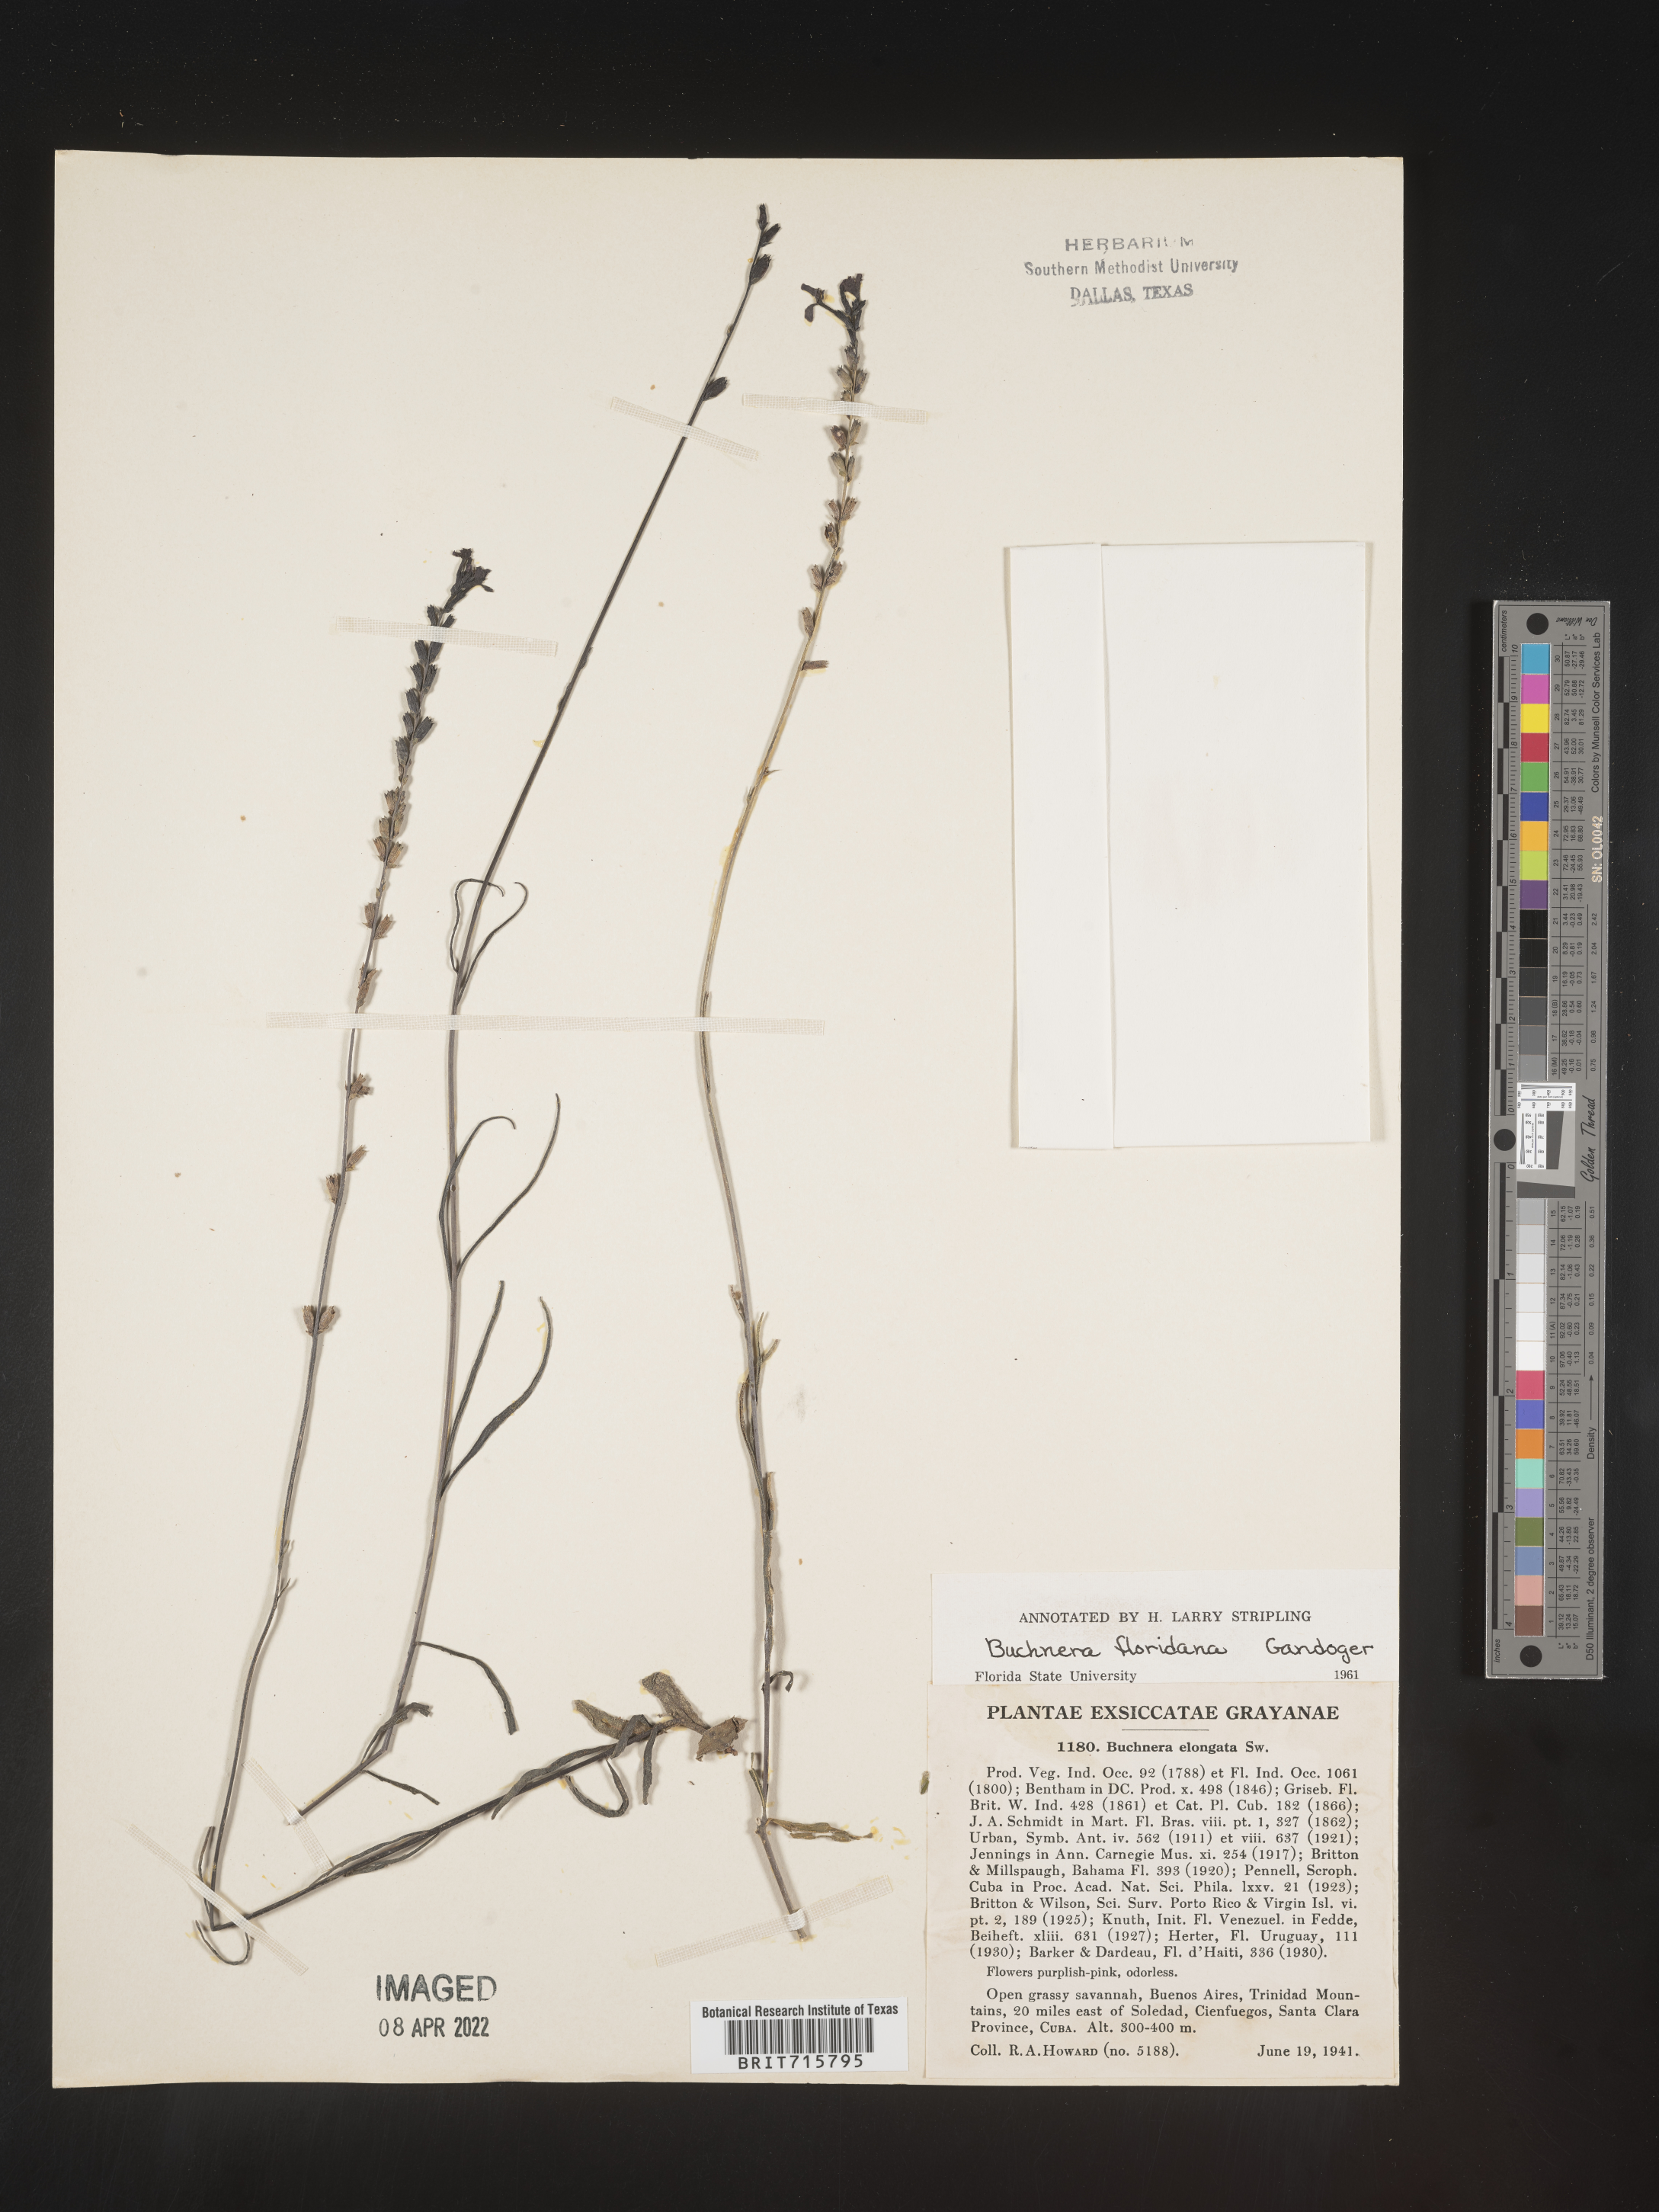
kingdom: Plantae
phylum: Tracheophyta
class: Magnoliopsida
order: Lamiales
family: Orobanchaceae
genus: Buchnera
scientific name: Buchnera
